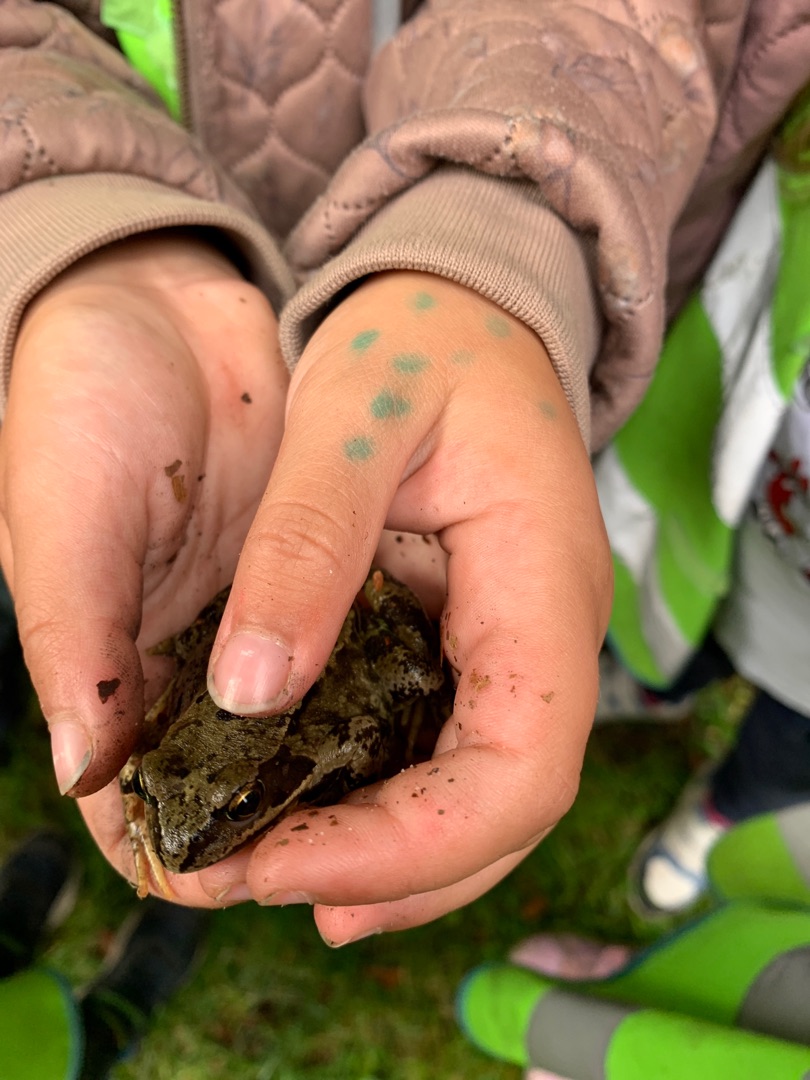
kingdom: Animalia
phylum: Chordata
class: Amphibia
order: Anura
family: Ranidae
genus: Rana
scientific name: Rana temporaria
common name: Butsnudet frø
